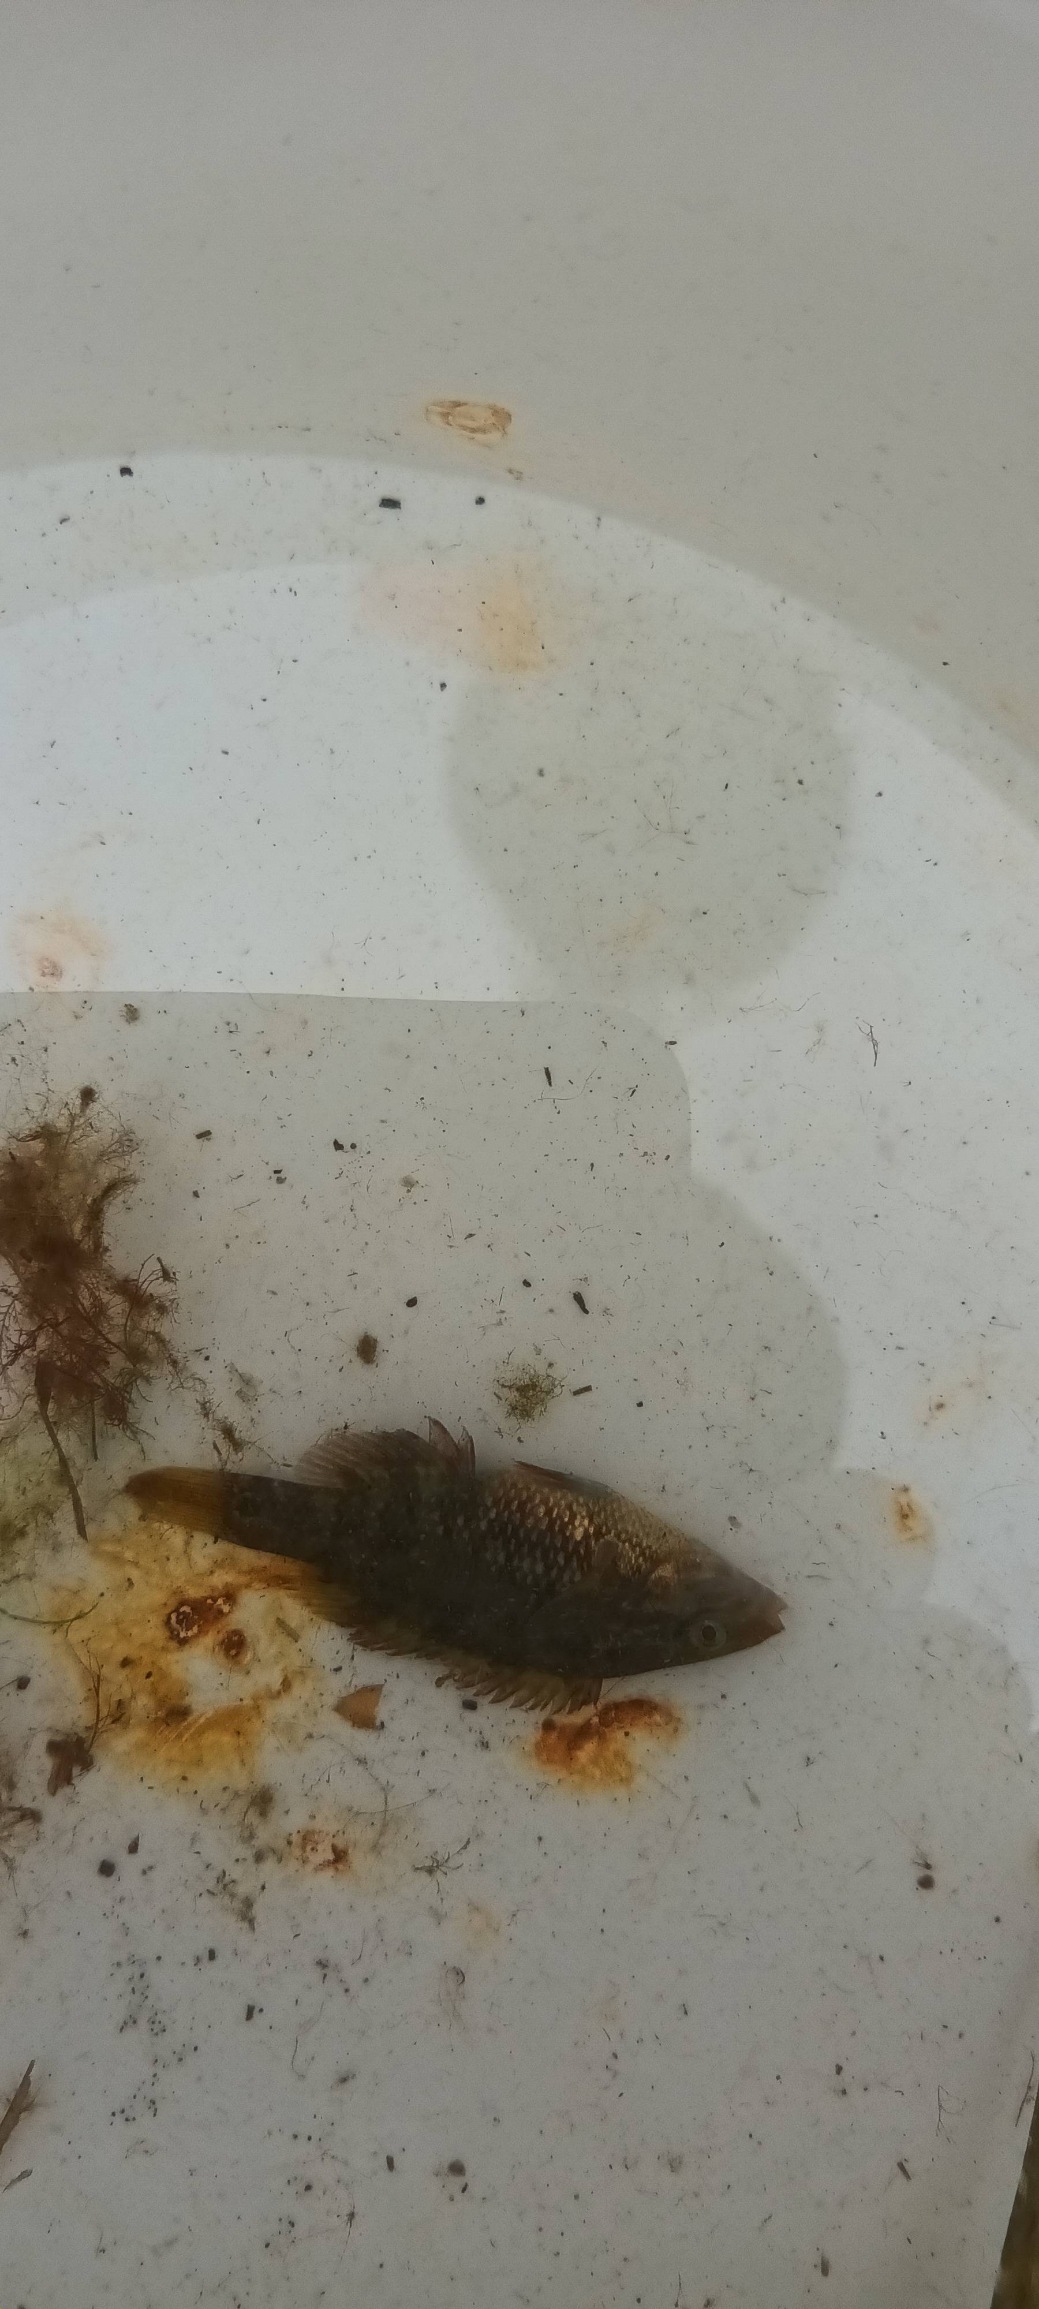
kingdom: Animalia
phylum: Chordata
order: Perciformes
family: Labridae
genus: Symphodus
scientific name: Symphodus melops
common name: Savgylte
